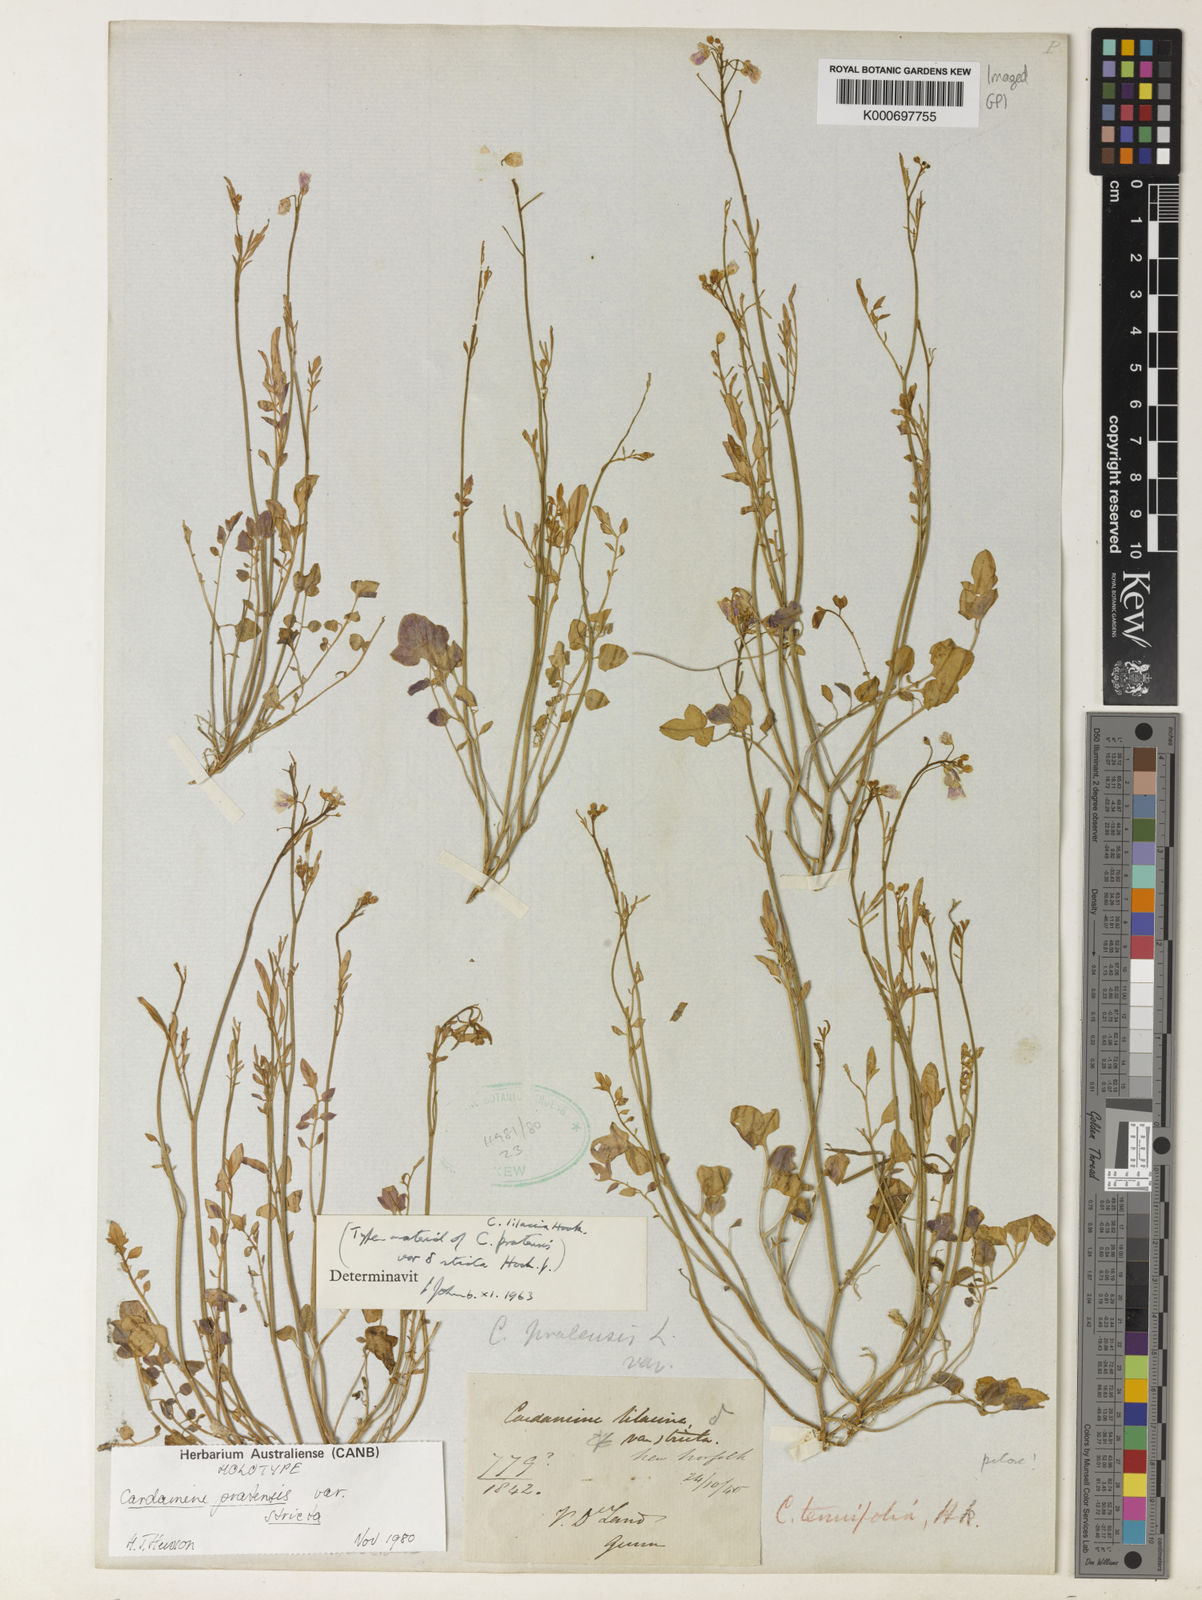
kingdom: Plantae
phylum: Tracheophyta
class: Magnoliopsida
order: Brassicales
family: Brassicaceae
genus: Cardamine
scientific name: Cardamine tenuifolia
